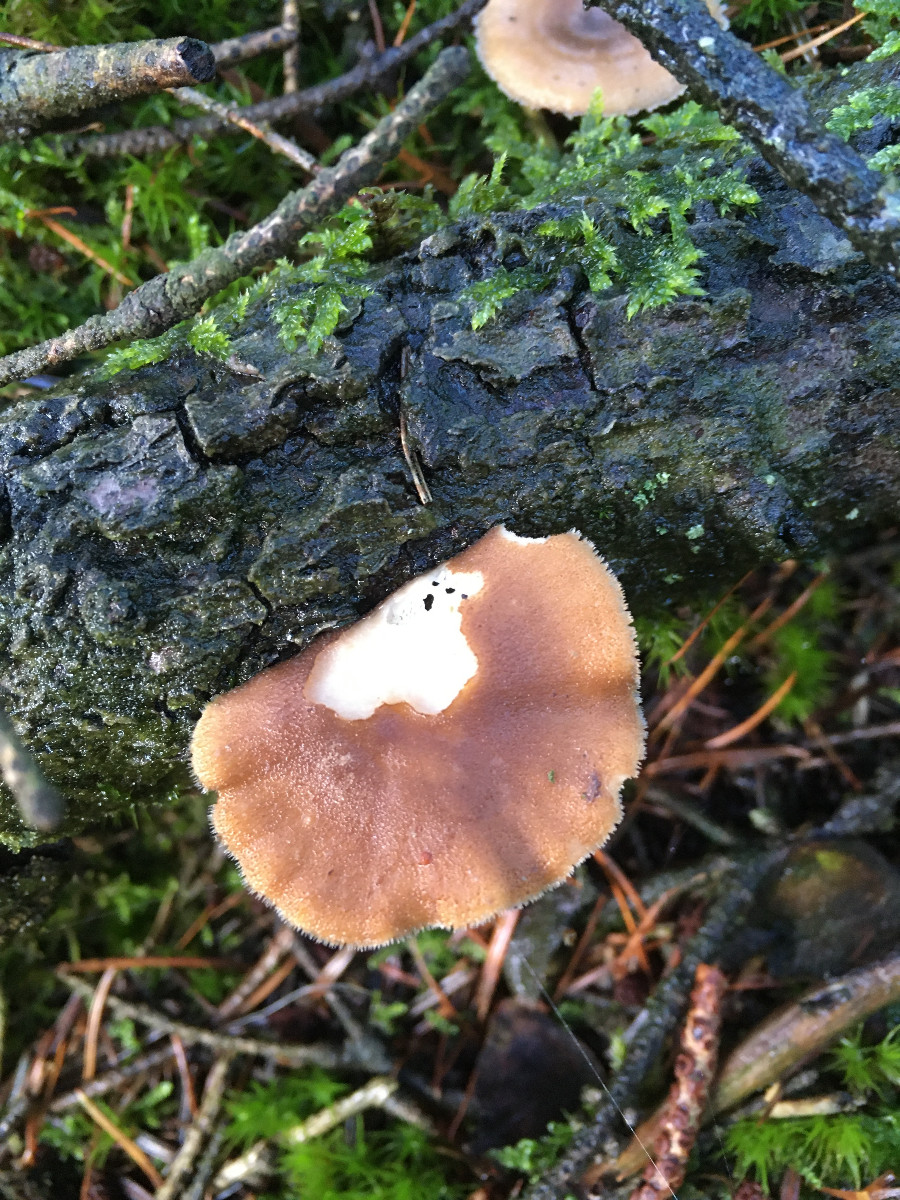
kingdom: Fungi
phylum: Basidiomycota
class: Agaricomycetes
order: Polyporales
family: Polyporaceae
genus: Lentinus
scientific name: Lentinus brumalis
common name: vinter-stilkporesvamp
